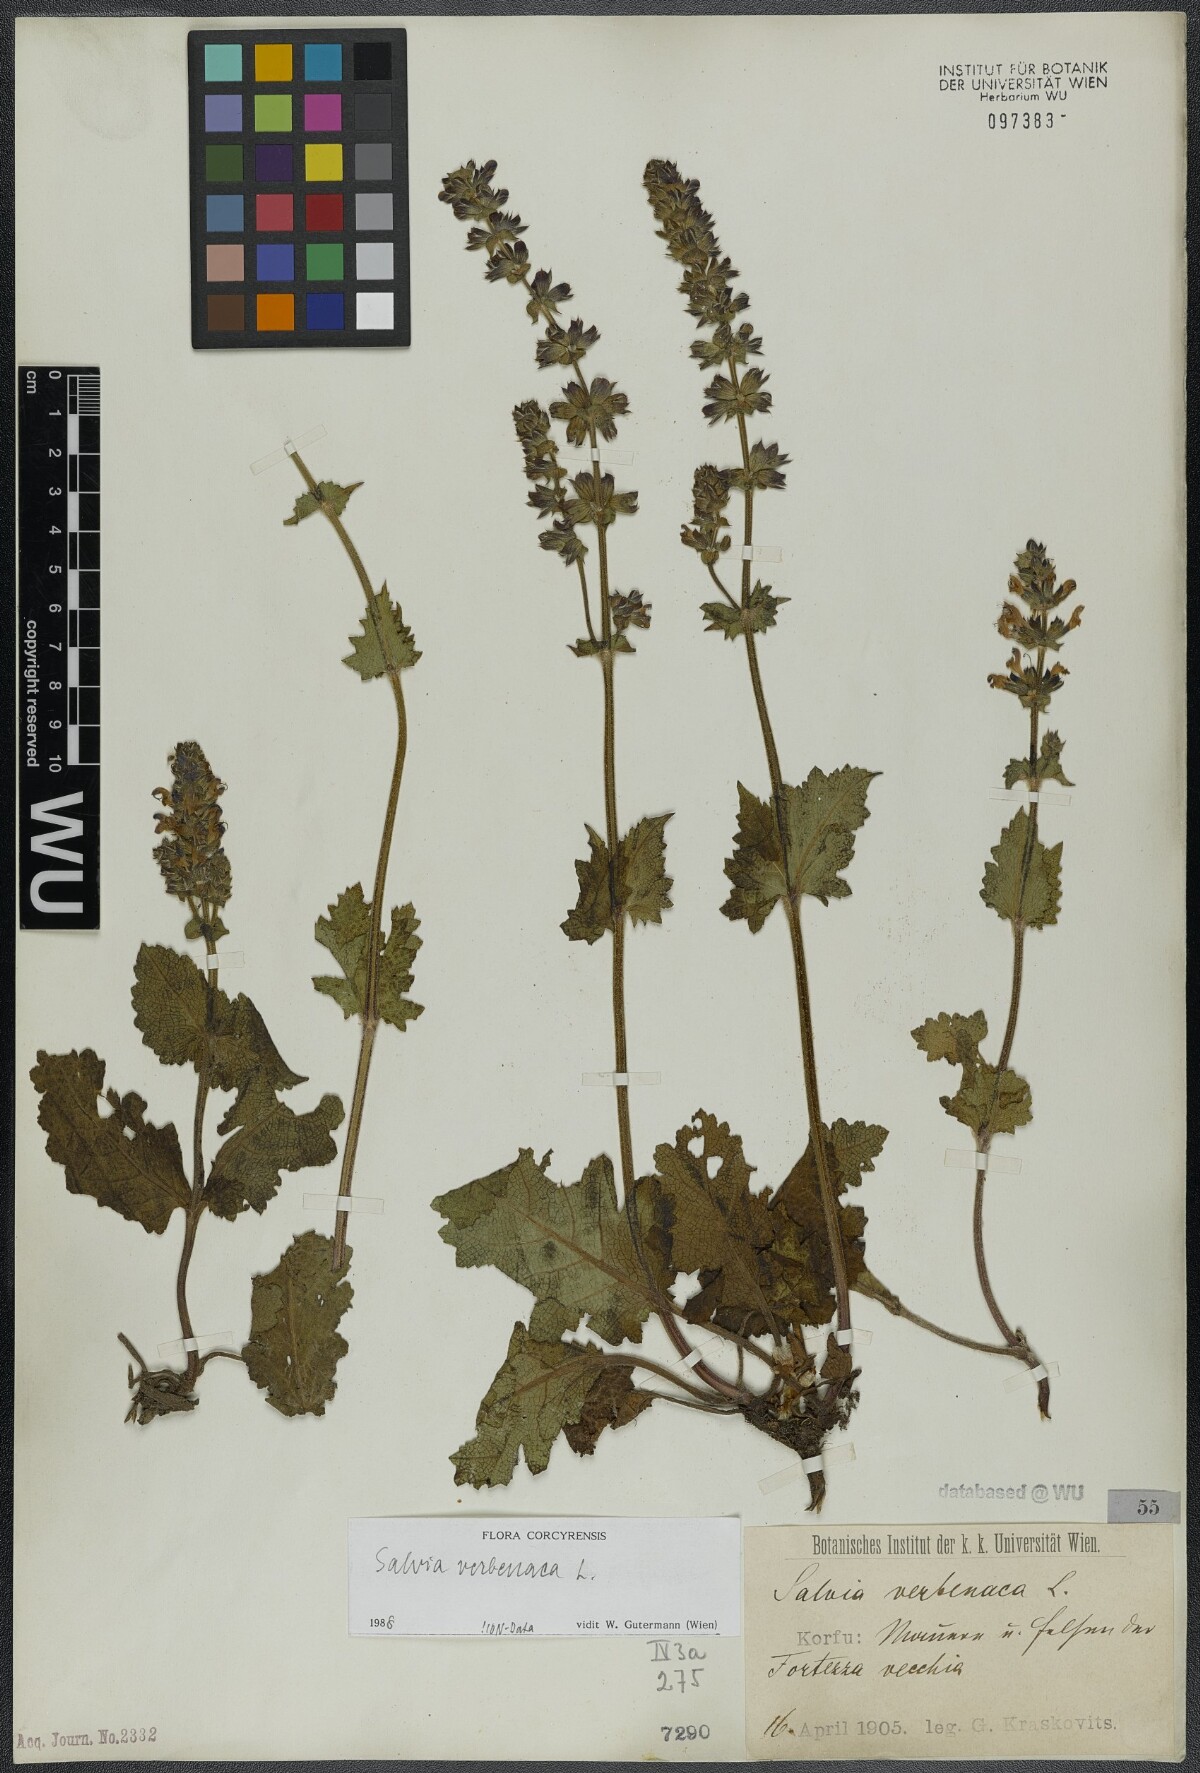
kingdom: Plantae
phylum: Tracheophyta
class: Magnoliopsida
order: Lamiales
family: Lamiaceae
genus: Salvia
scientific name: Salvia verbenaca
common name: Wild clary
